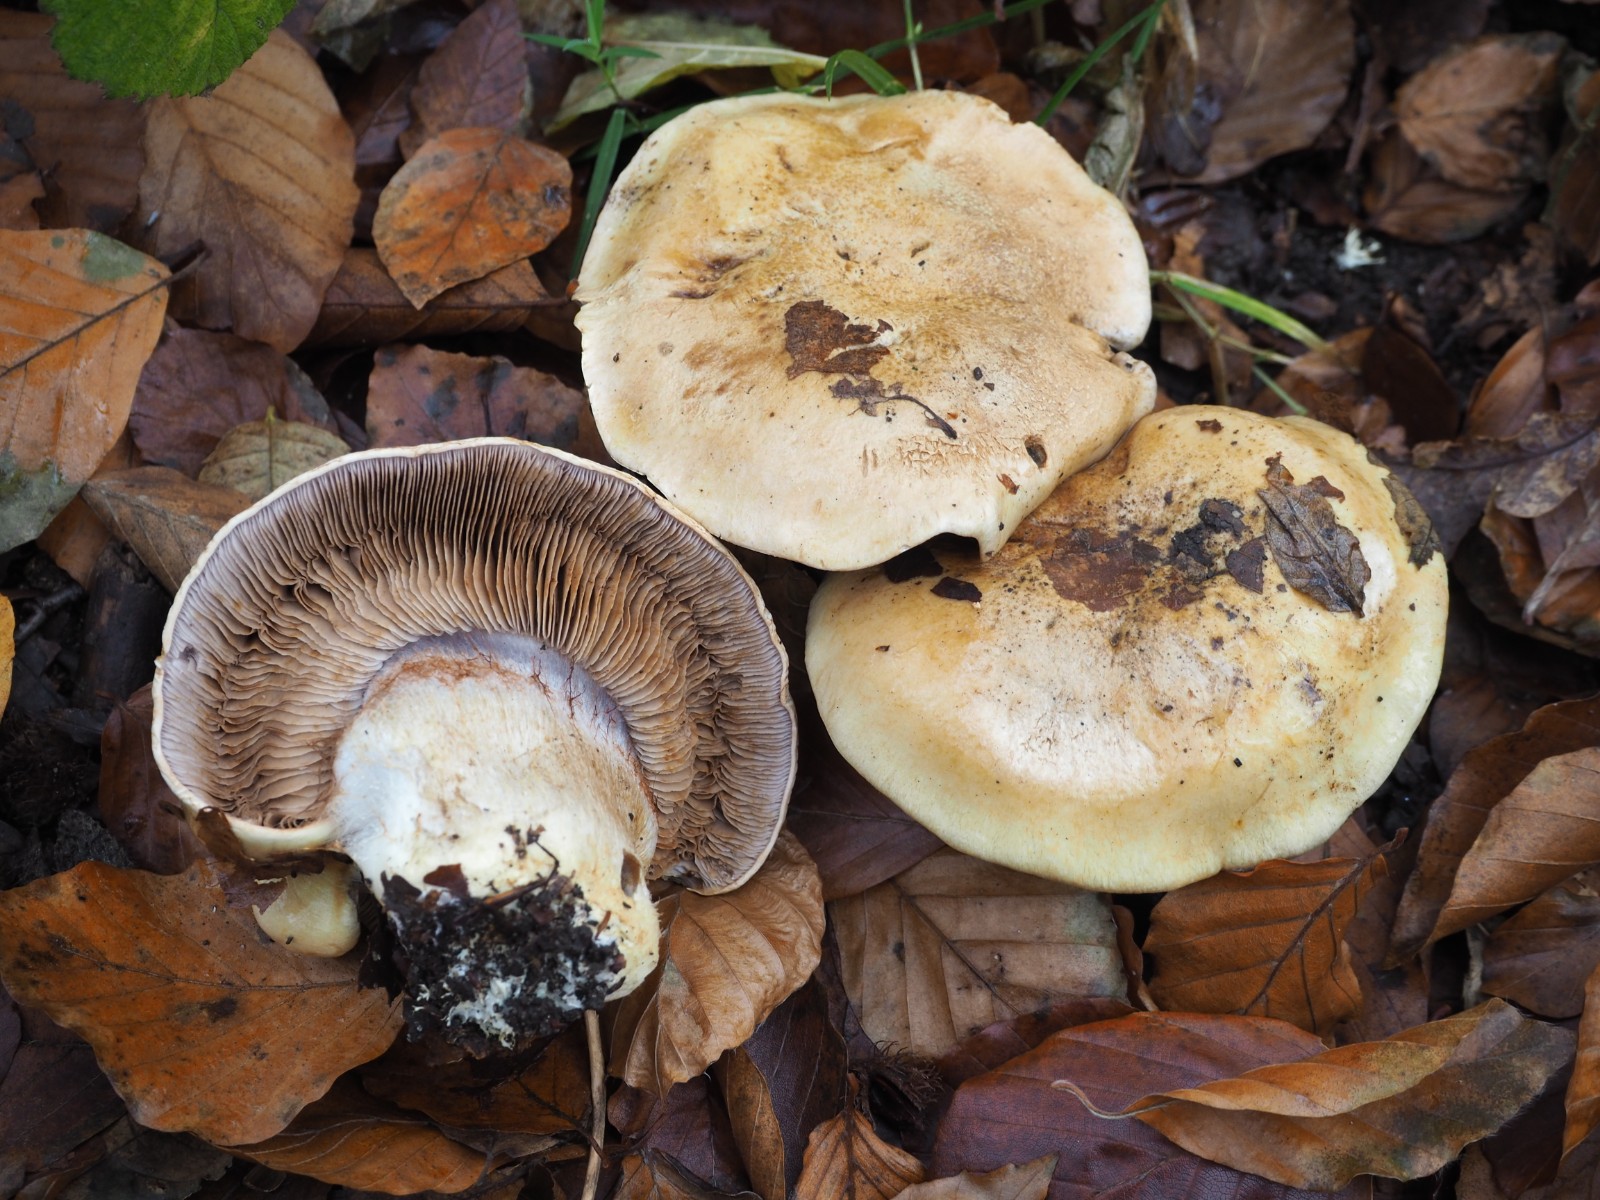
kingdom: Fungi
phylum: Basidiomycota
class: Agaricomycetes
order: Agaricales
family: Cortinariaceae
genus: Cortinarius
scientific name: Cortinarius
